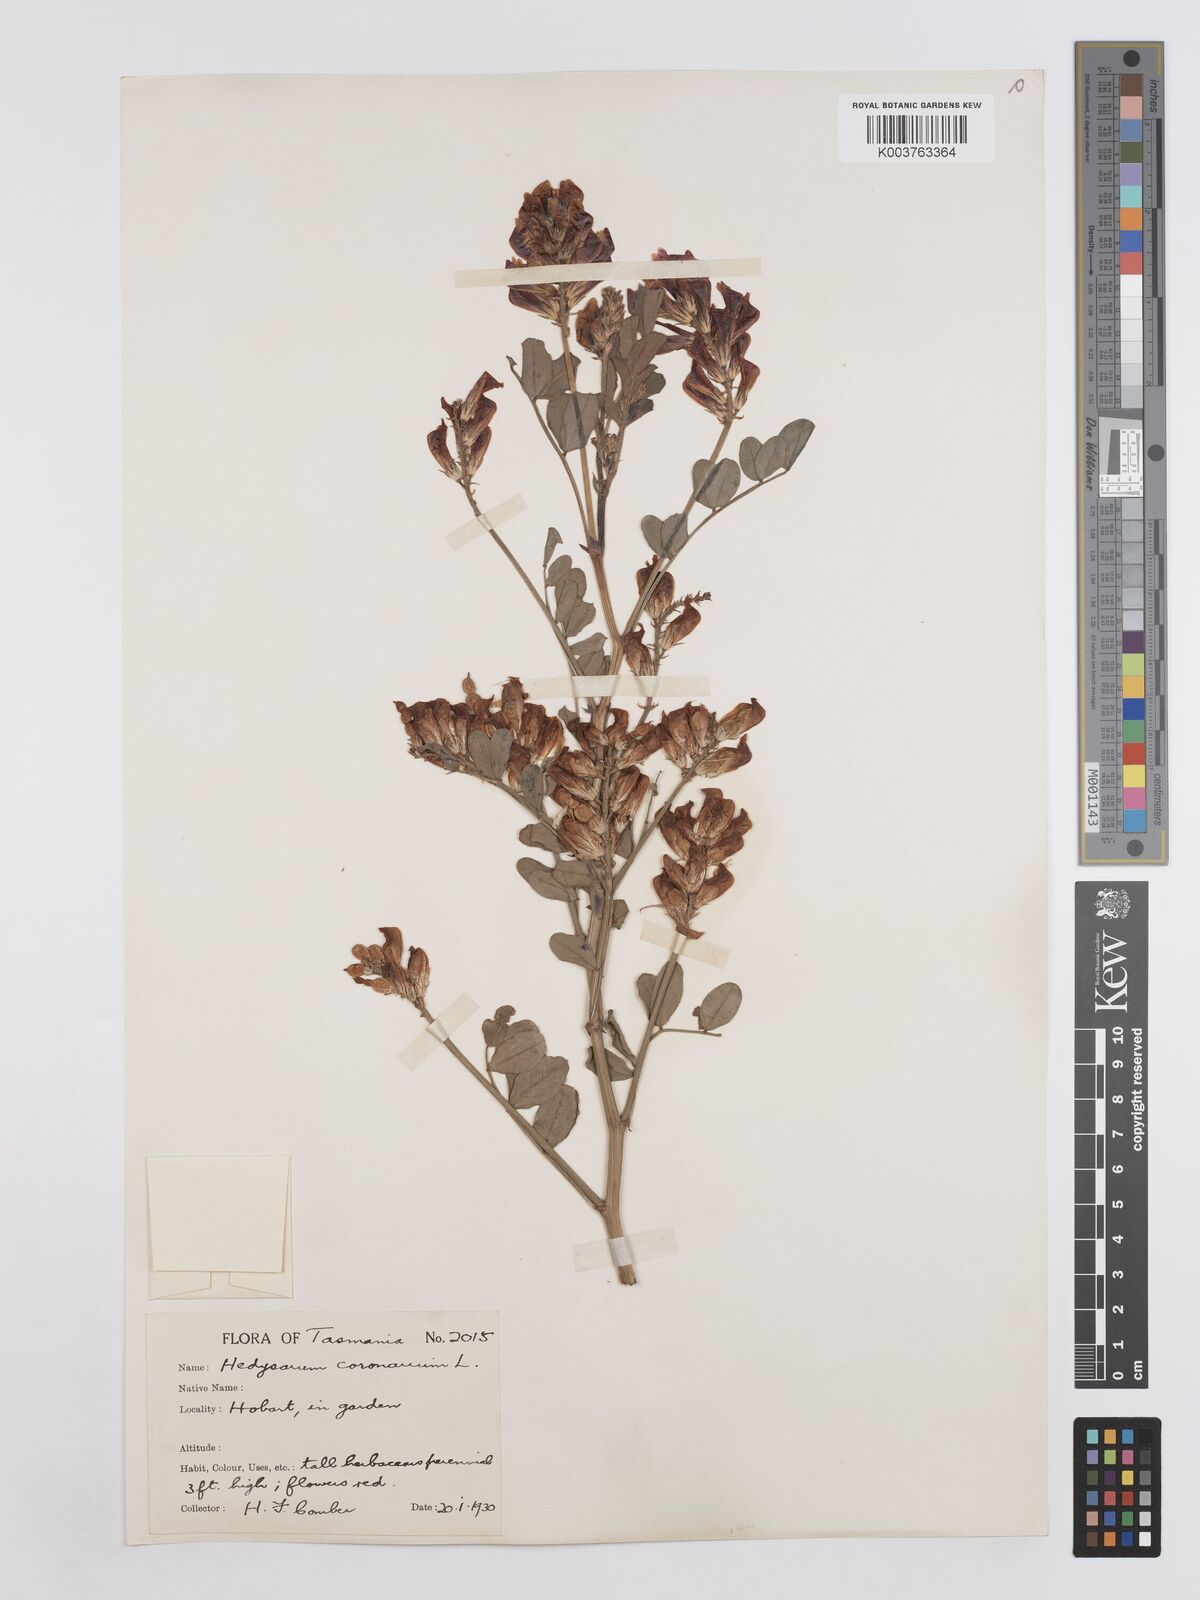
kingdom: Plantae
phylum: Tracheophyta
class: Magnoliopsida
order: Fabales
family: Fabaceae
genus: Sulla
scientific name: Sulla coronaria
